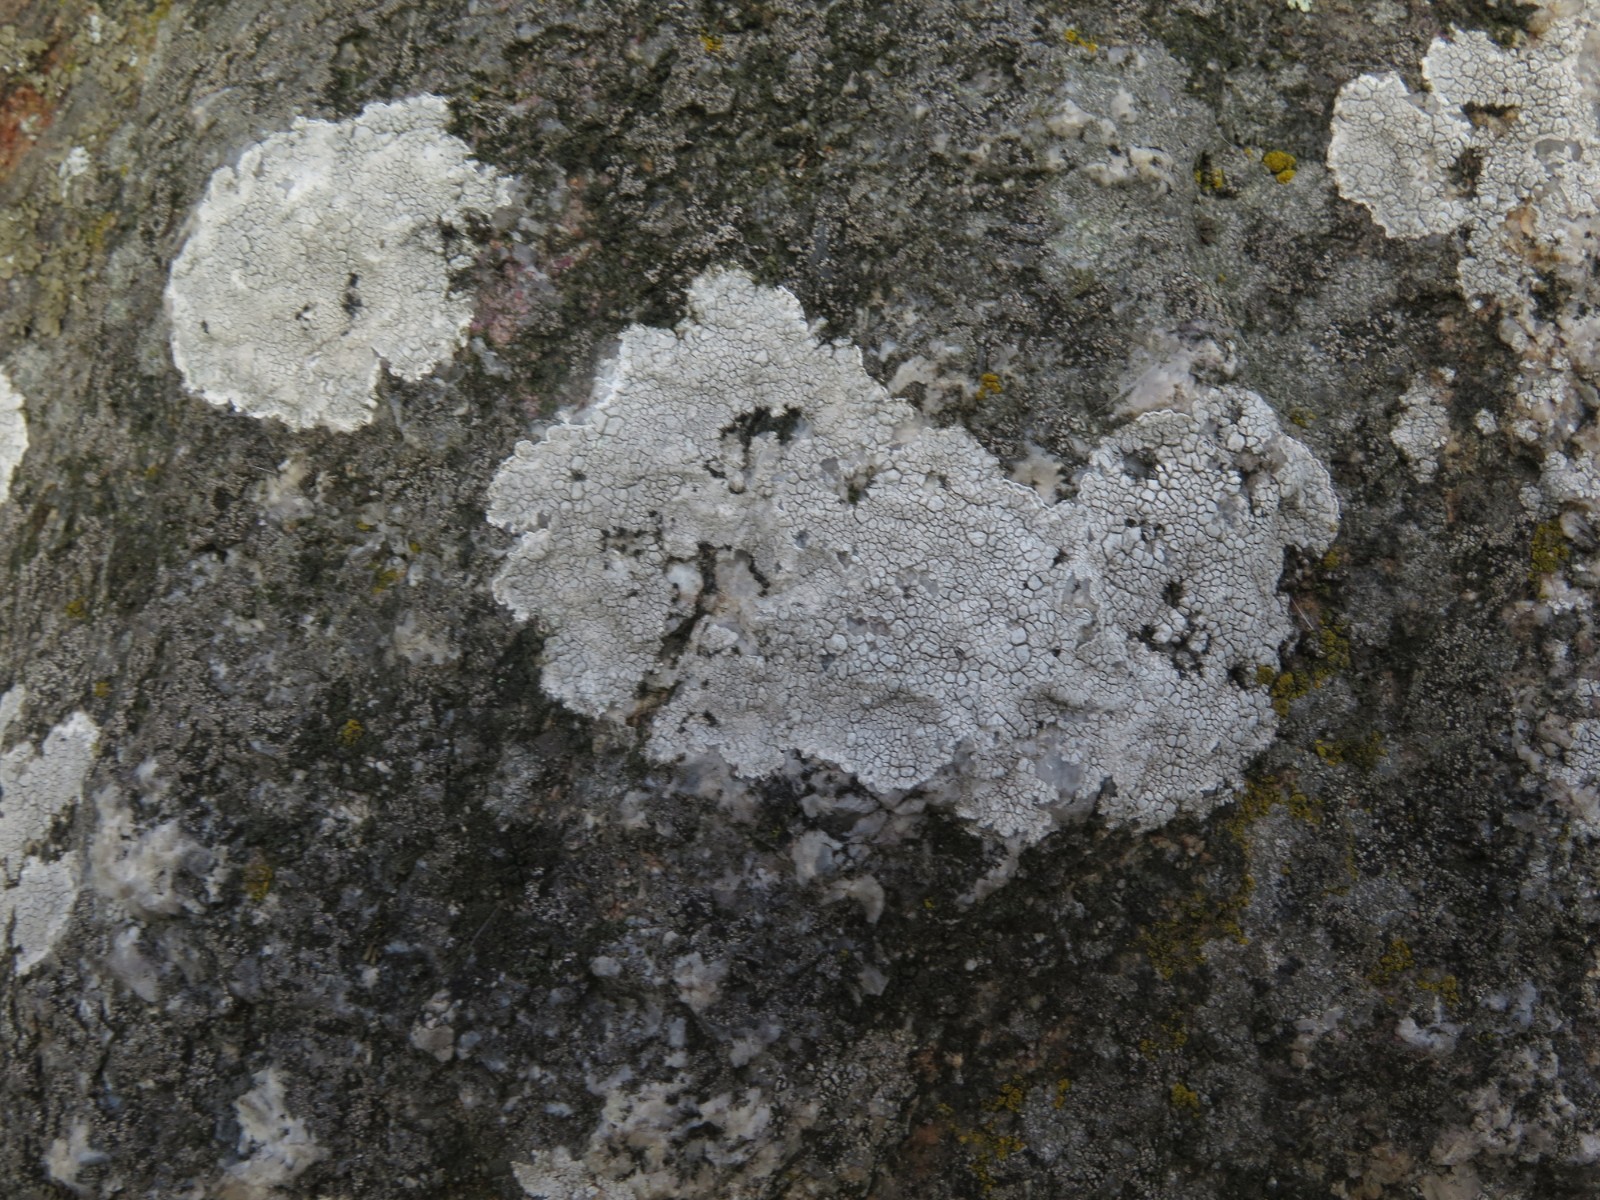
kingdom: Fungi
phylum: Ascomycota
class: Lecanoromycetes
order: Lecanorales
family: Lecanoraceae
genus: Glaucomaria
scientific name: Glaucomaria rupicola
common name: stengærde-kantskivelav
